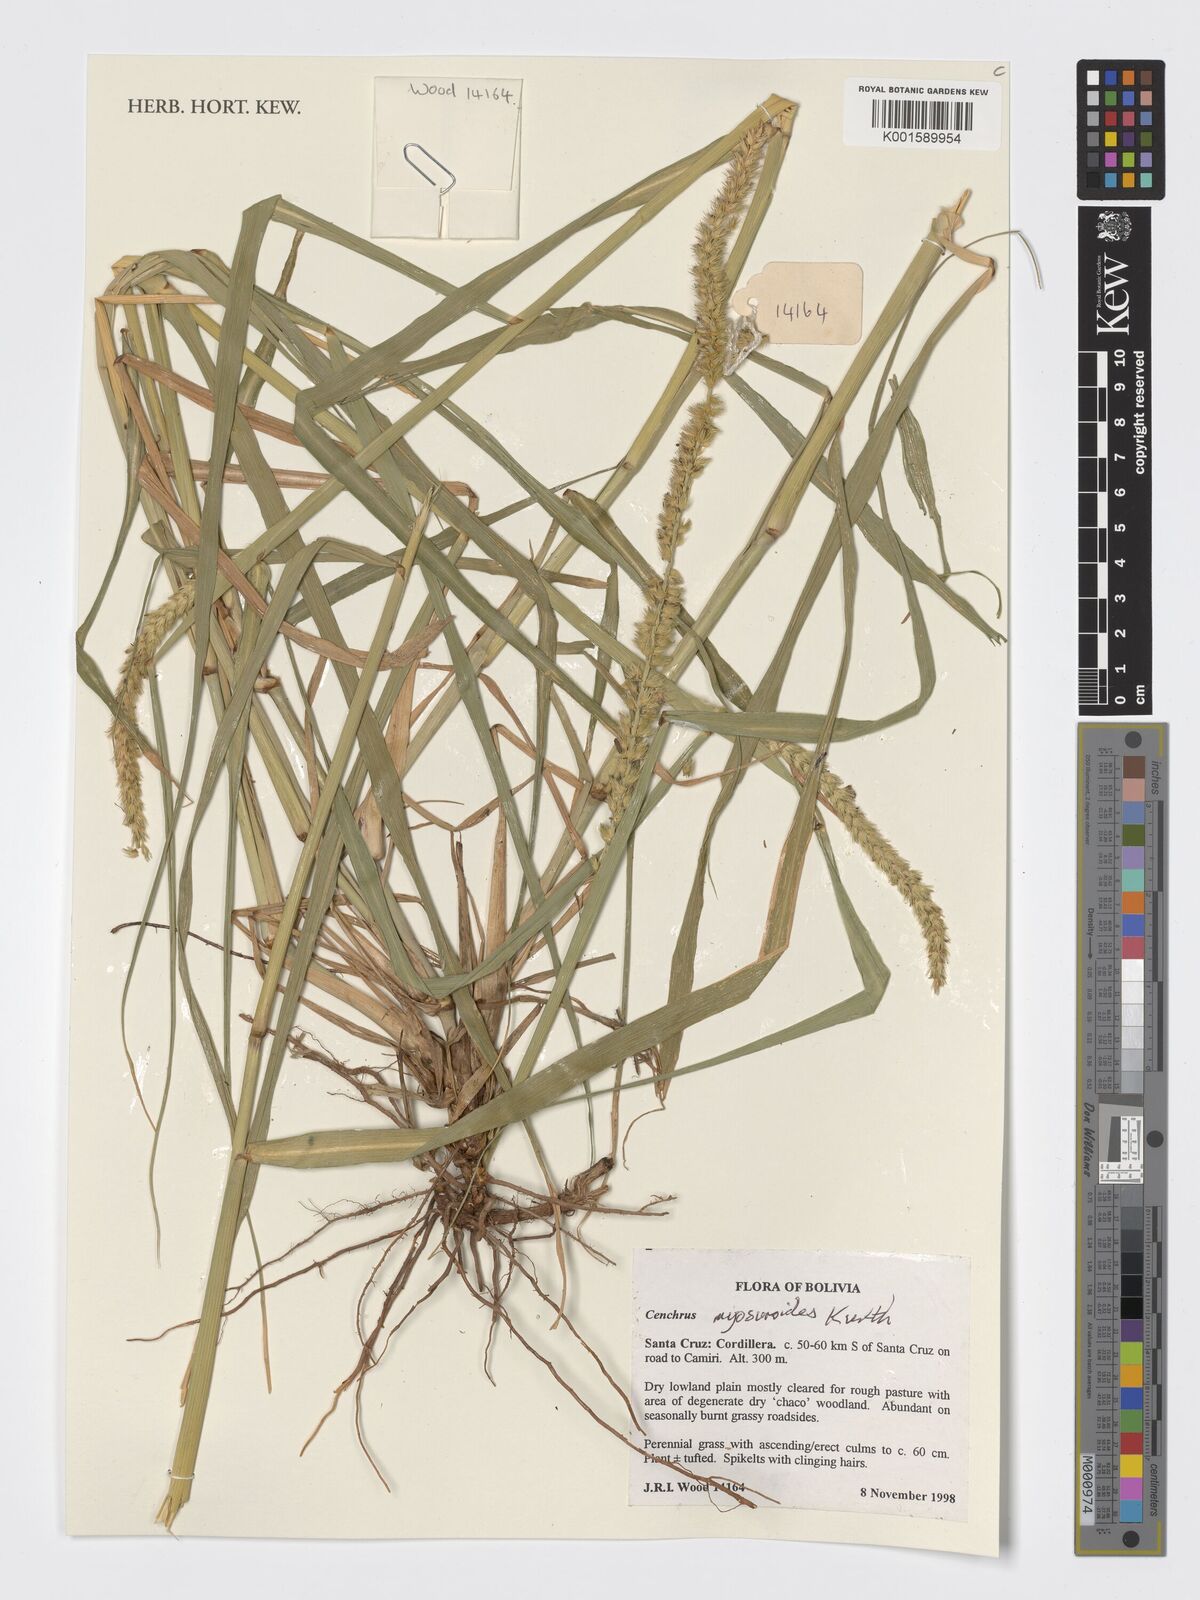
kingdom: Plantae
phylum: Tracheophyta
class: Liliopsida
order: Poales
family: Poaceae
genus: Cenchrus
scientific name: Cenchrus myosuroides
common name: Big sandbur
